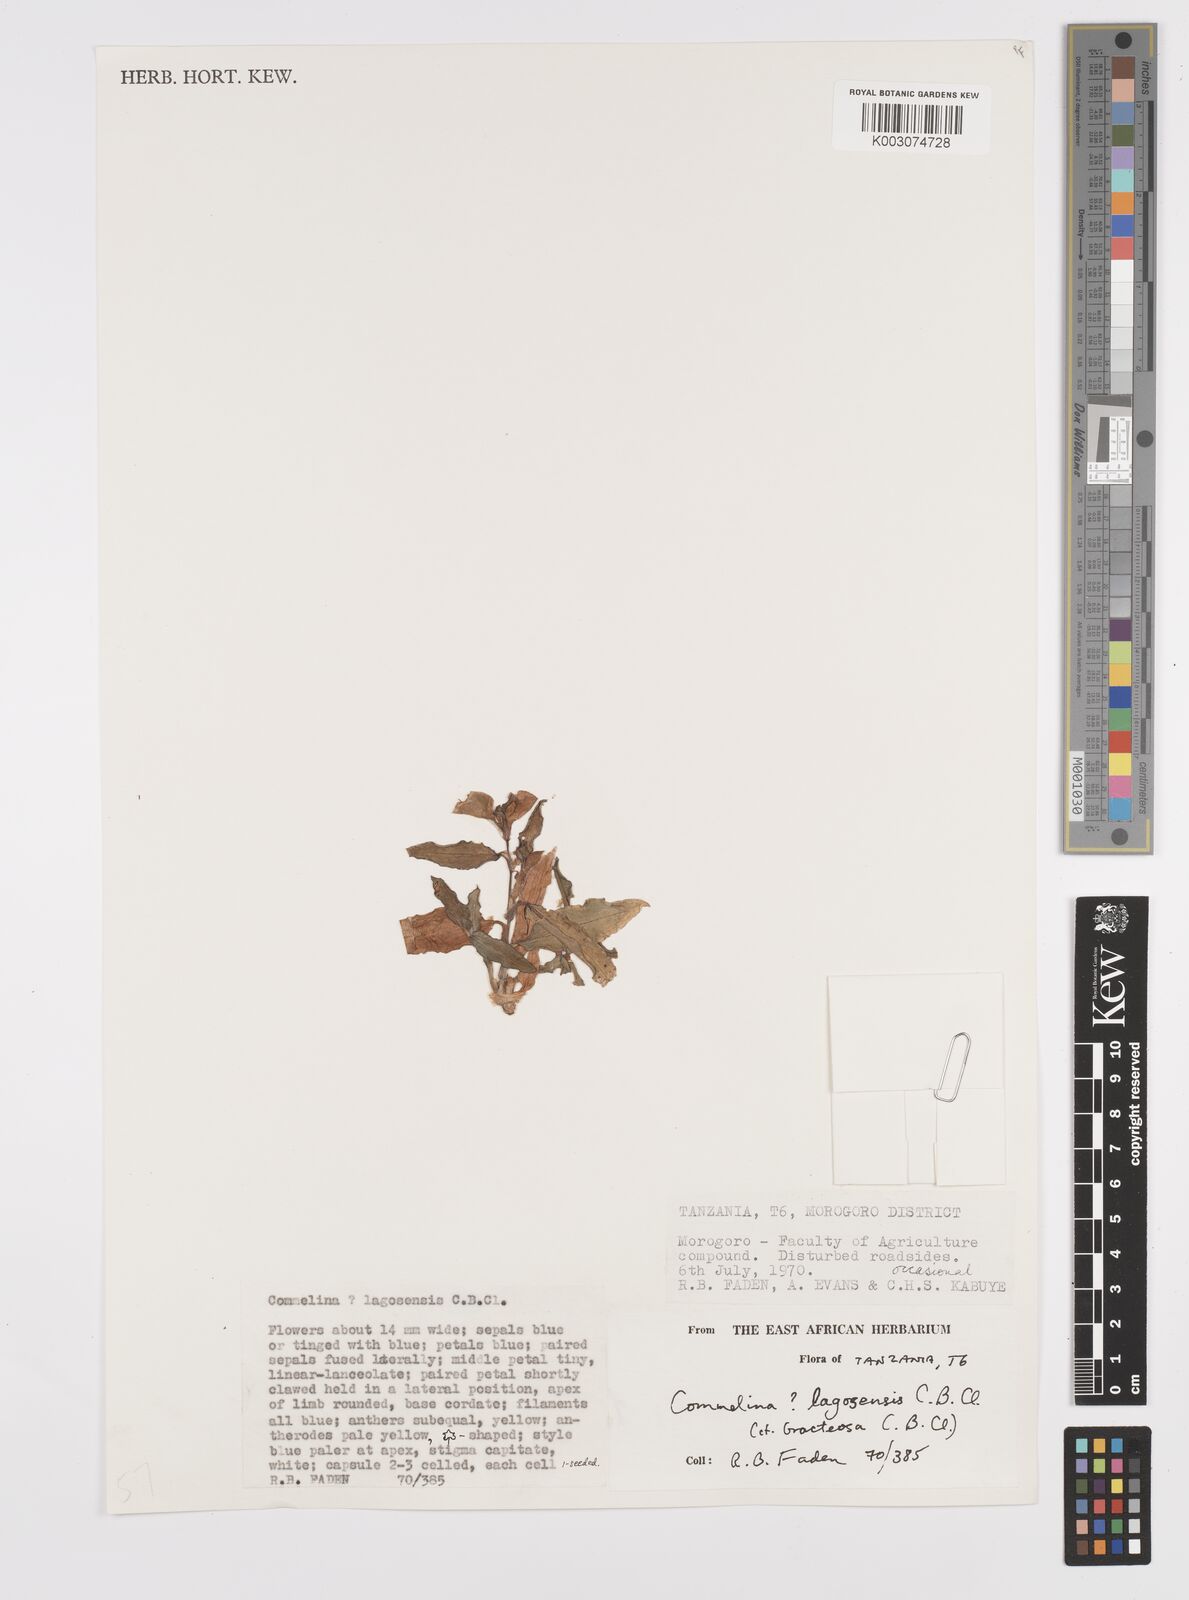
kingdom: Plantae
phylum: Tracheophyta
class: Liliopsida
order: Commelinales
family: Commelinaceae
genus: Commelina
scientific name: Commelina bracteosa
